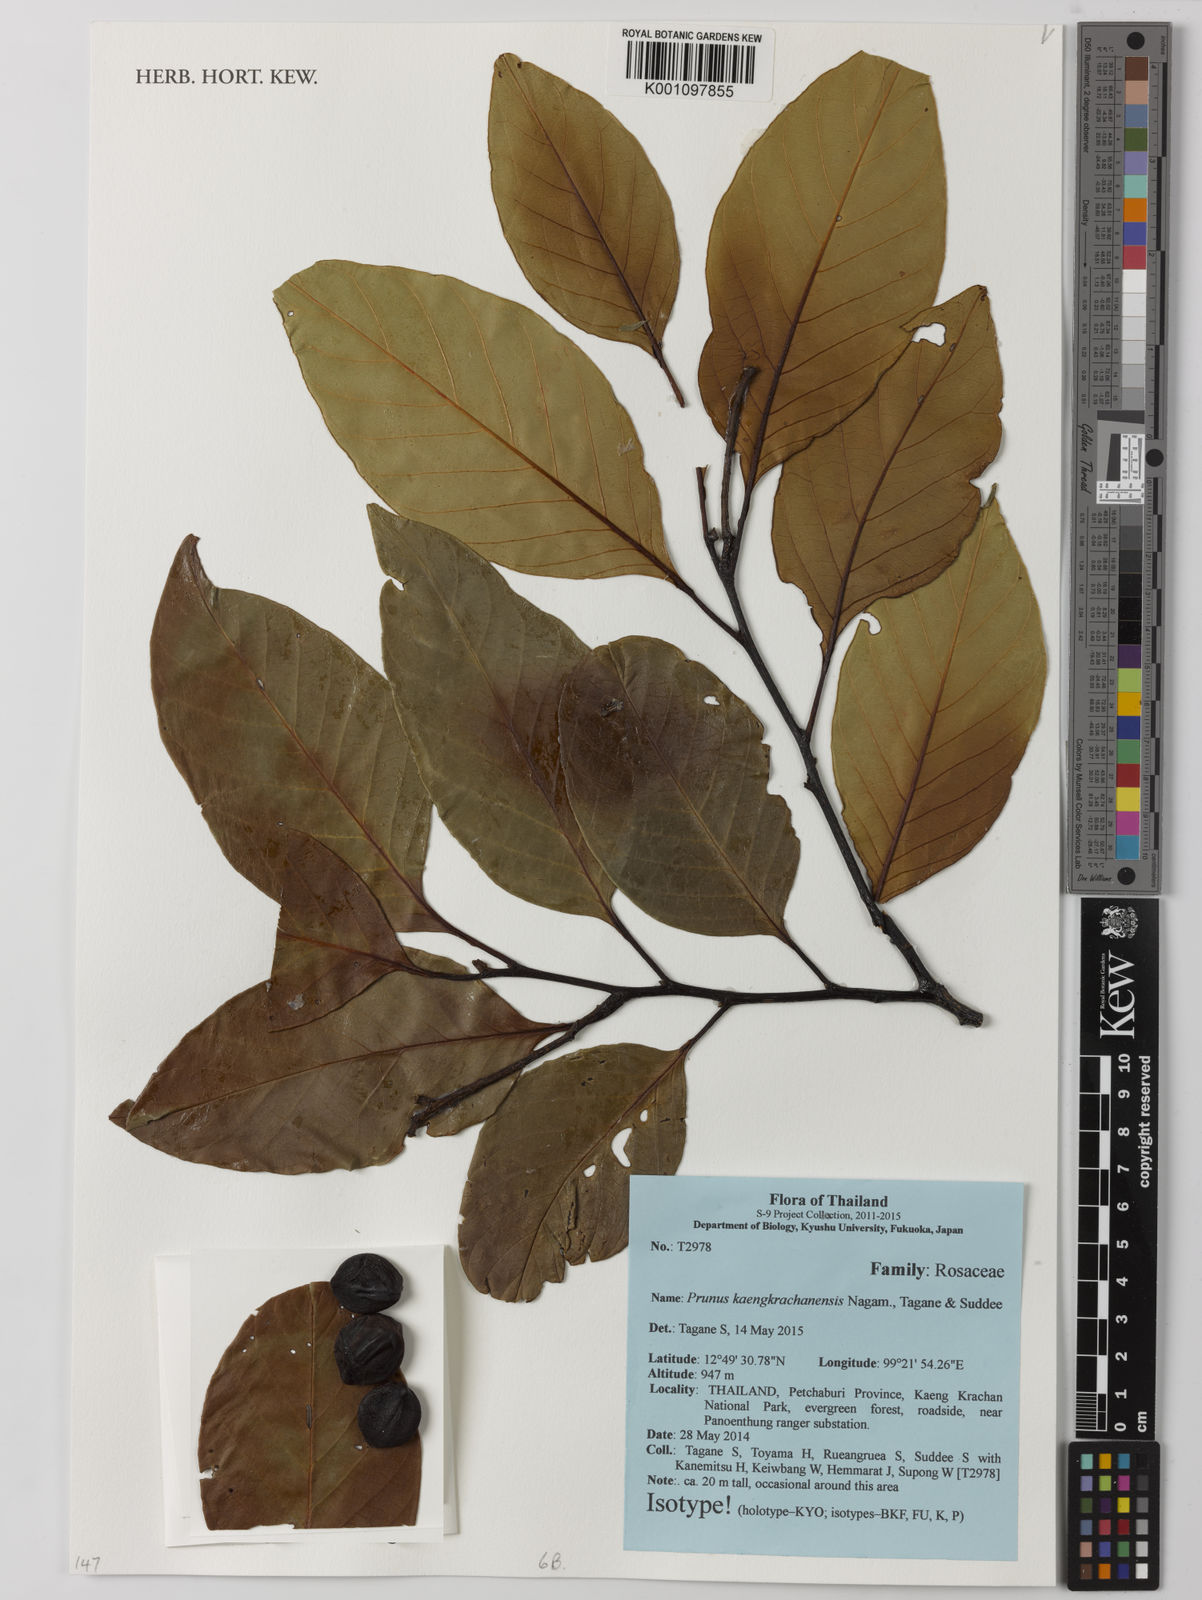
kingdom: Plantae
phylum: Tracheophyta
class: Magnoliopsida
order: Rosales
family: Rosaceae
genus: Prunus
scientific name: Prunus kaengkrachanensis
